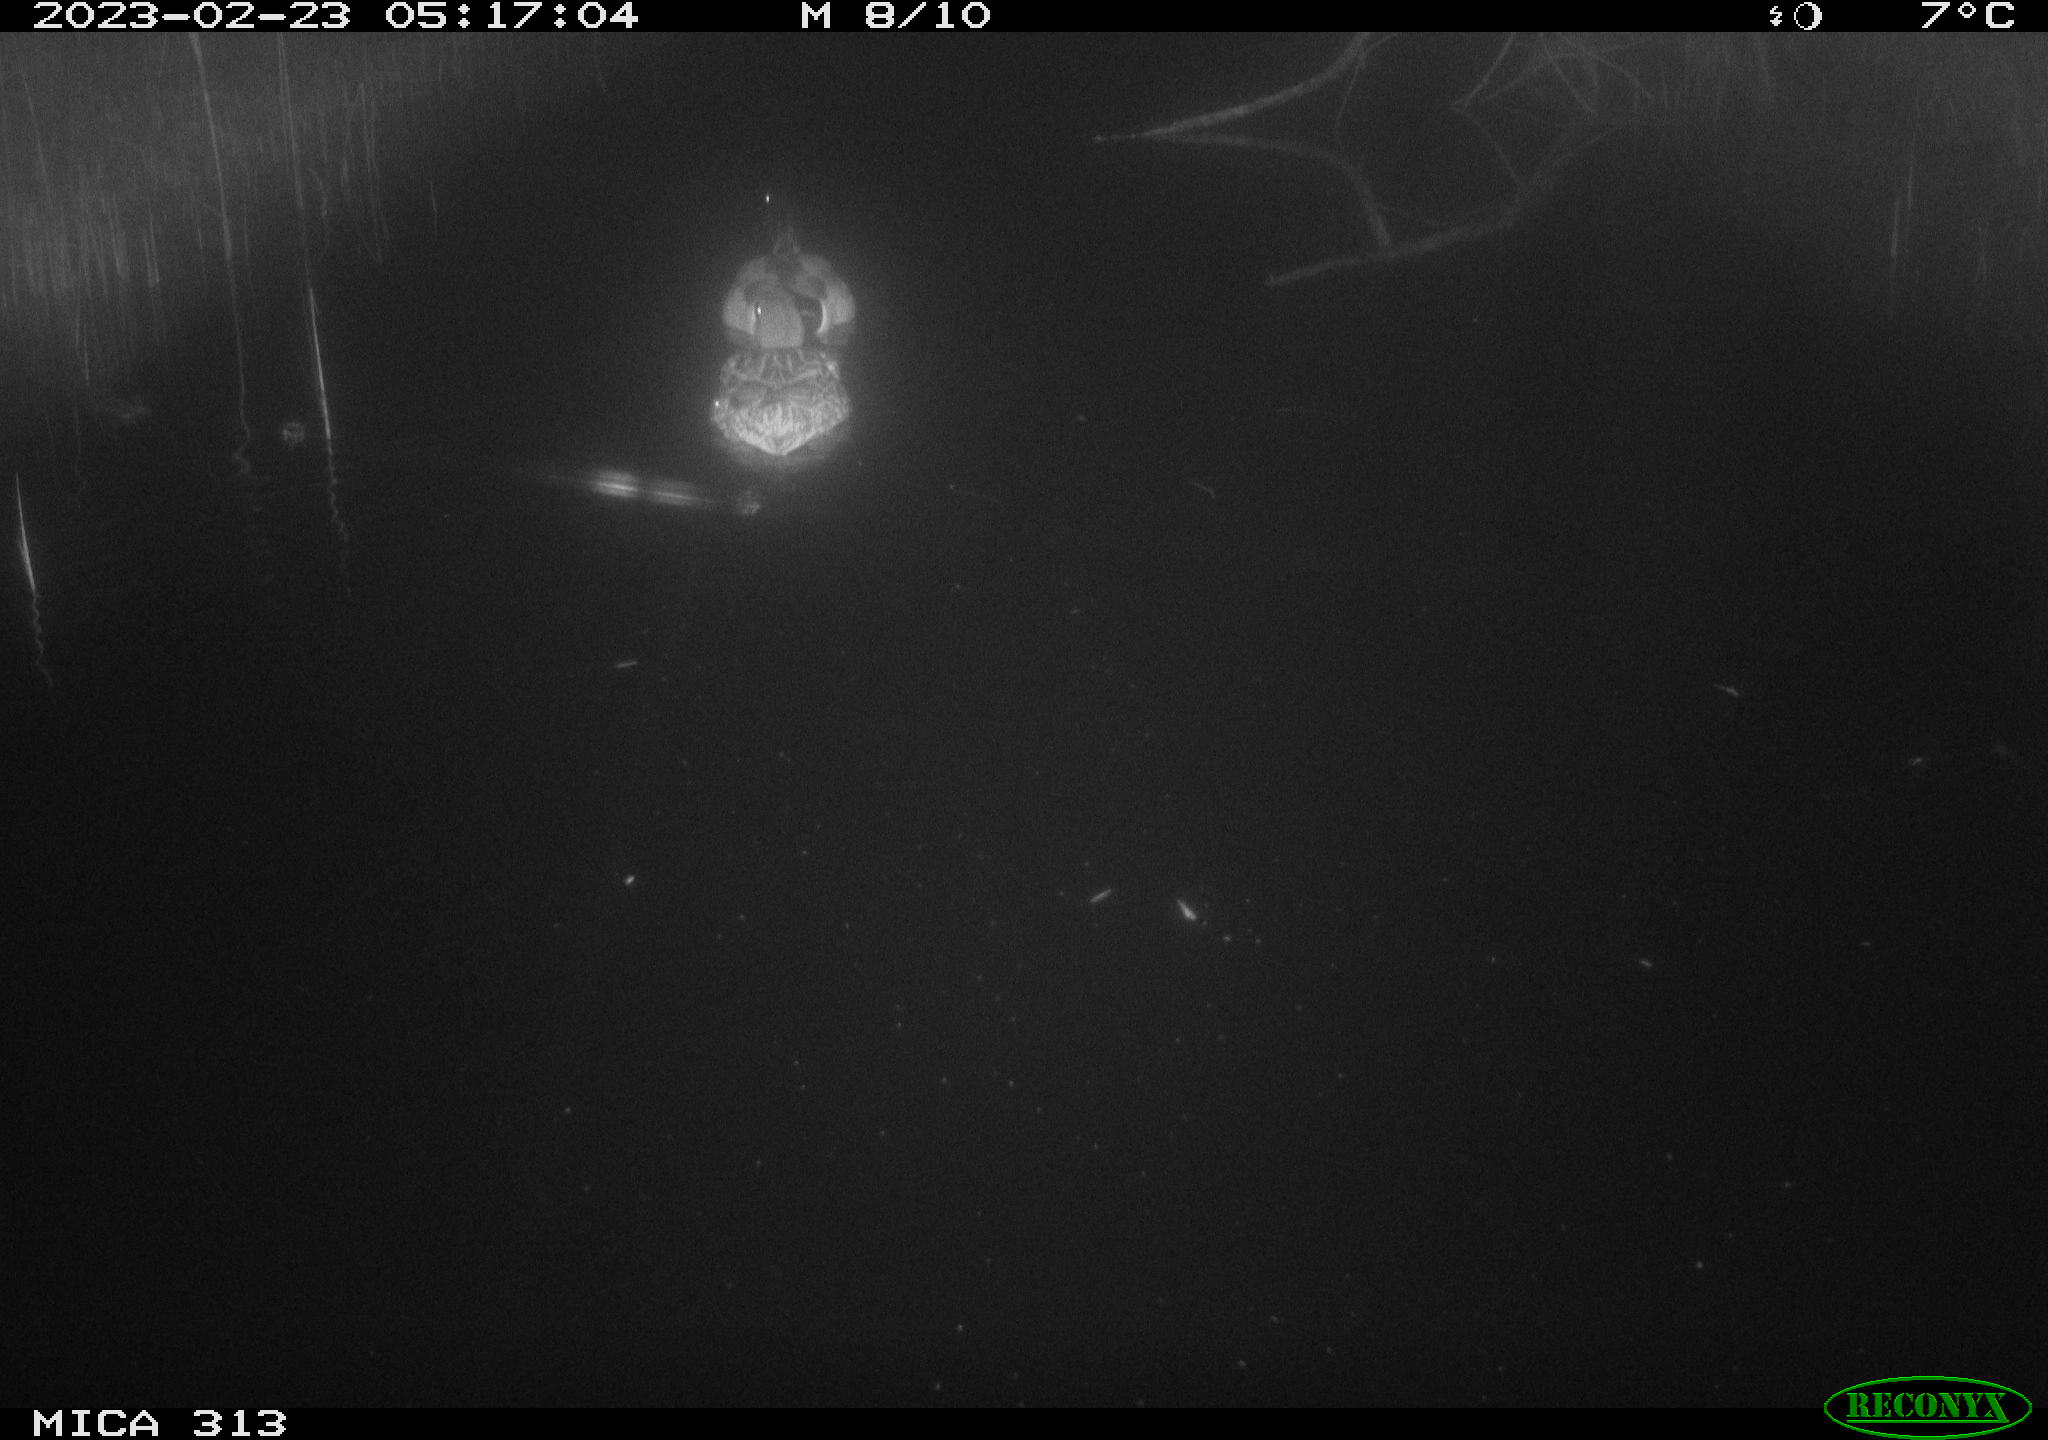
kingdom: Animalia
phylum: Chordata
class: Aves
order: Anseriformes
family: Anatidae
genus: Anas
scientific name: Anas
